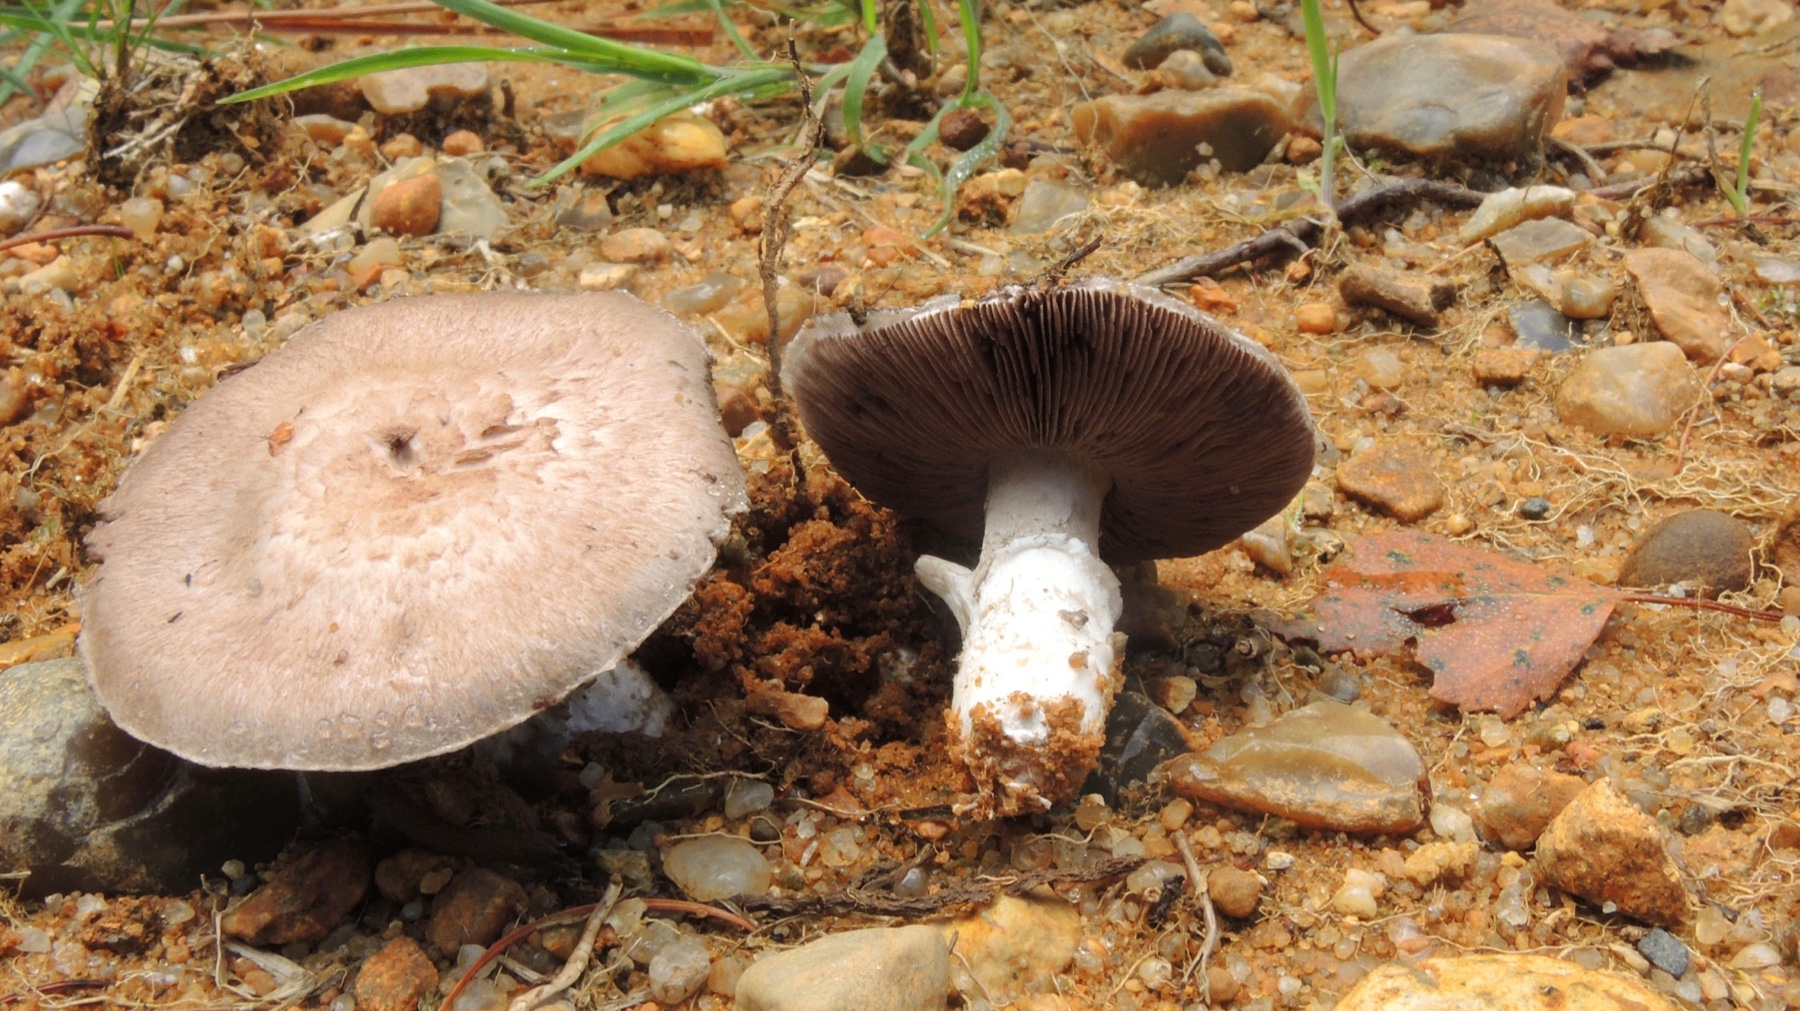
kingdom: Fungi
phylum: Basidiomycota
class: Agaricomycetes
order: Agaricales
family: Agaricaceae
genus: Agaricus
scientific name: Agaricus brunneolus
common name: purpur-champignon
